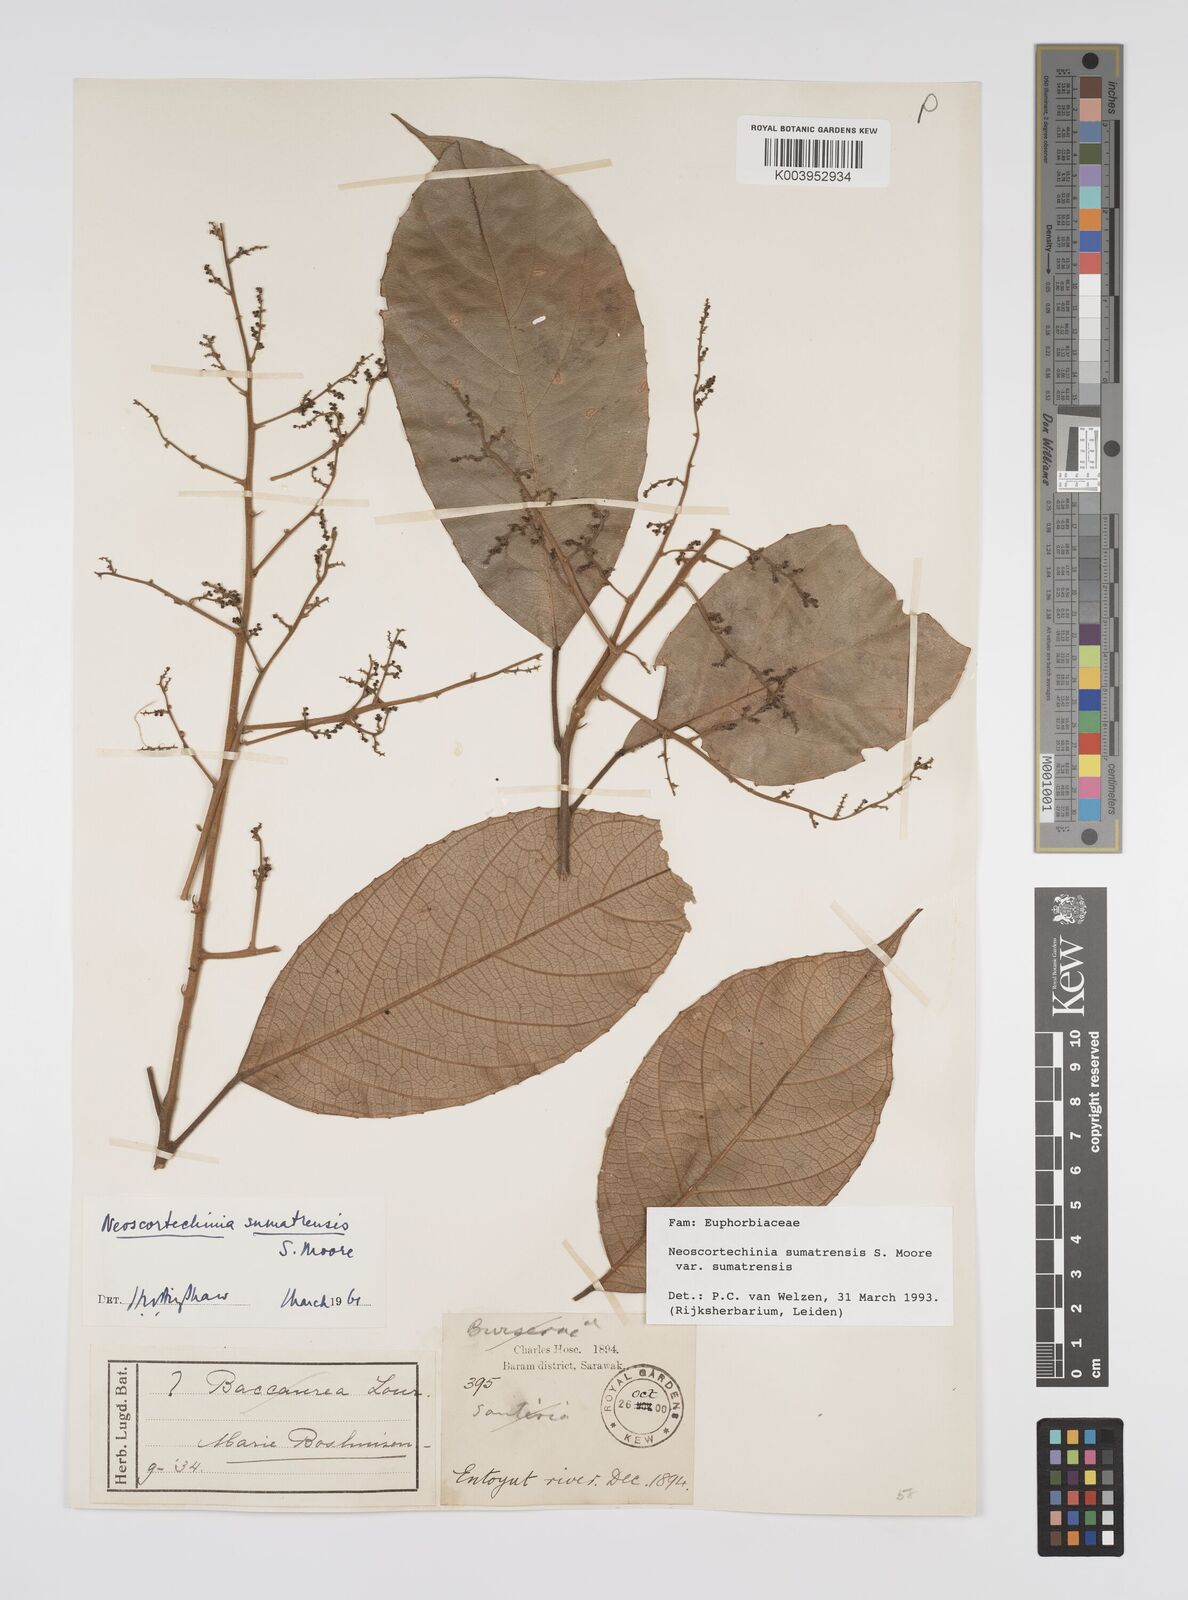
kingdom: Plantae
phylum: Tracheophyta
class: Magnoliopsida
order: Malpighiales
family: Euphorbiaceae
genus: Neoscortechinia
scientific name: Neoscortechinia sumatrensis
